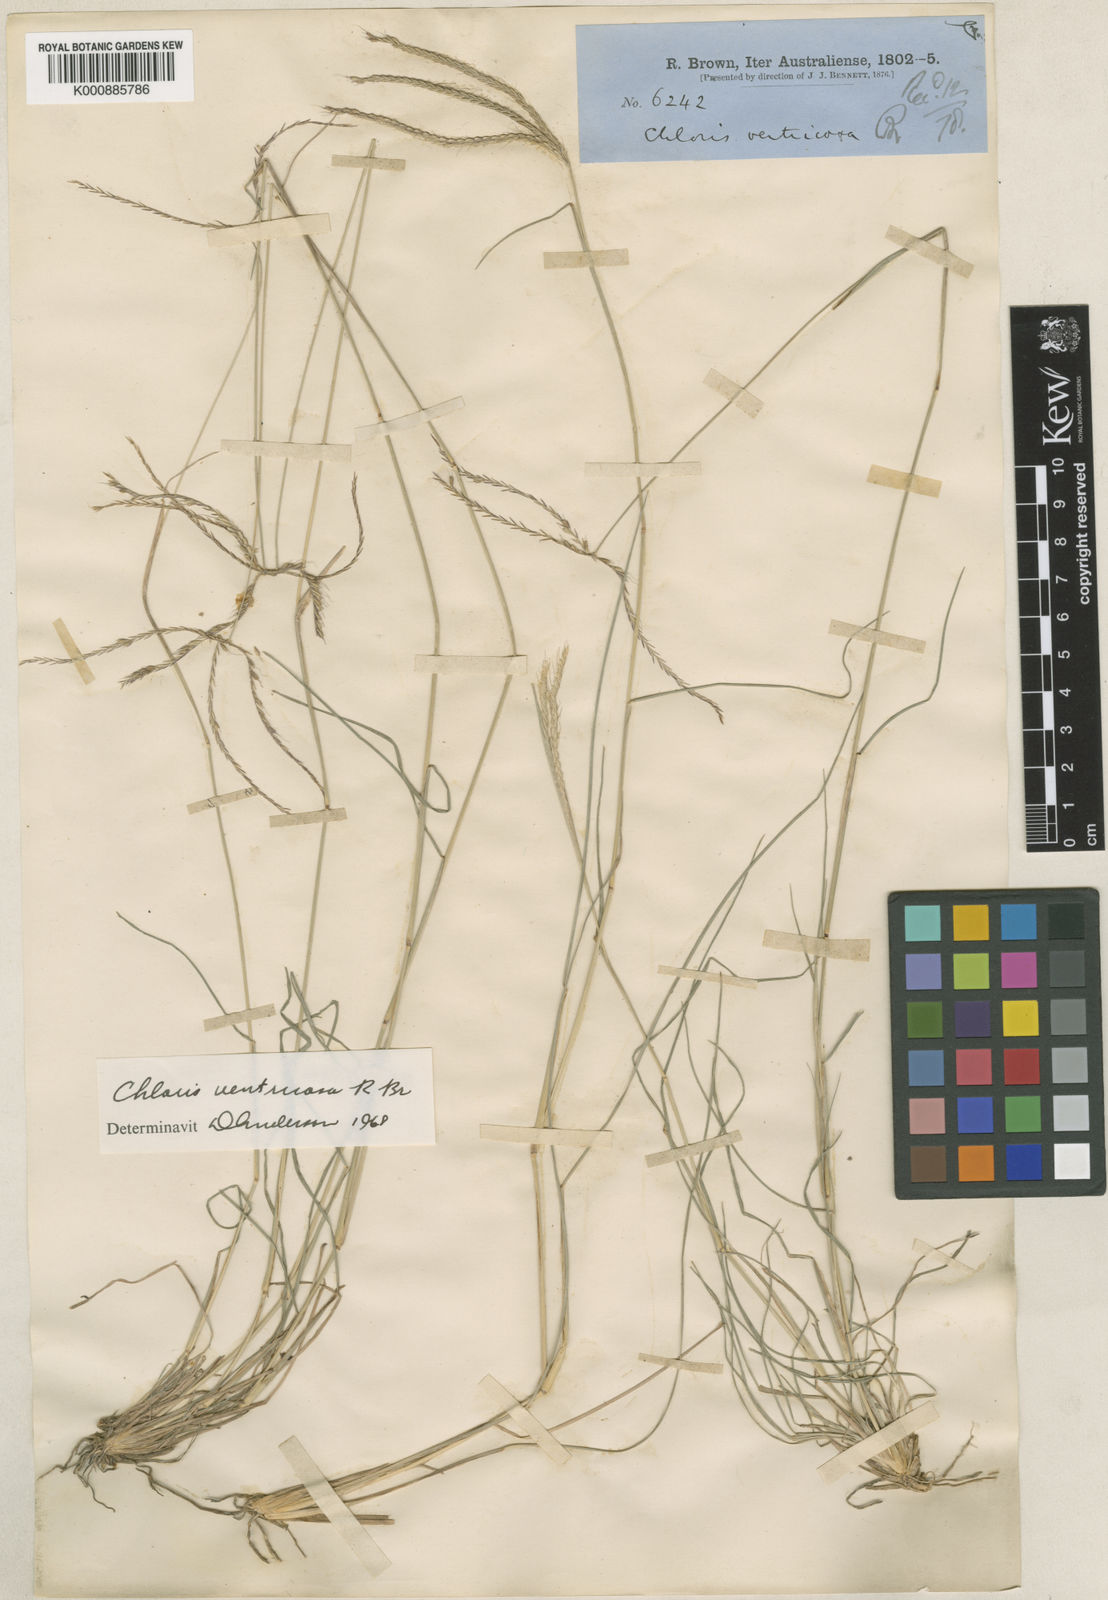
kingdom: Plantae
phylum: Tracheophyta
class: Liliopsida
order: Poales
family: Poaceae
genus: Chloris
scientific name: Chloris ventricosa
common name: Australian windmill grass
